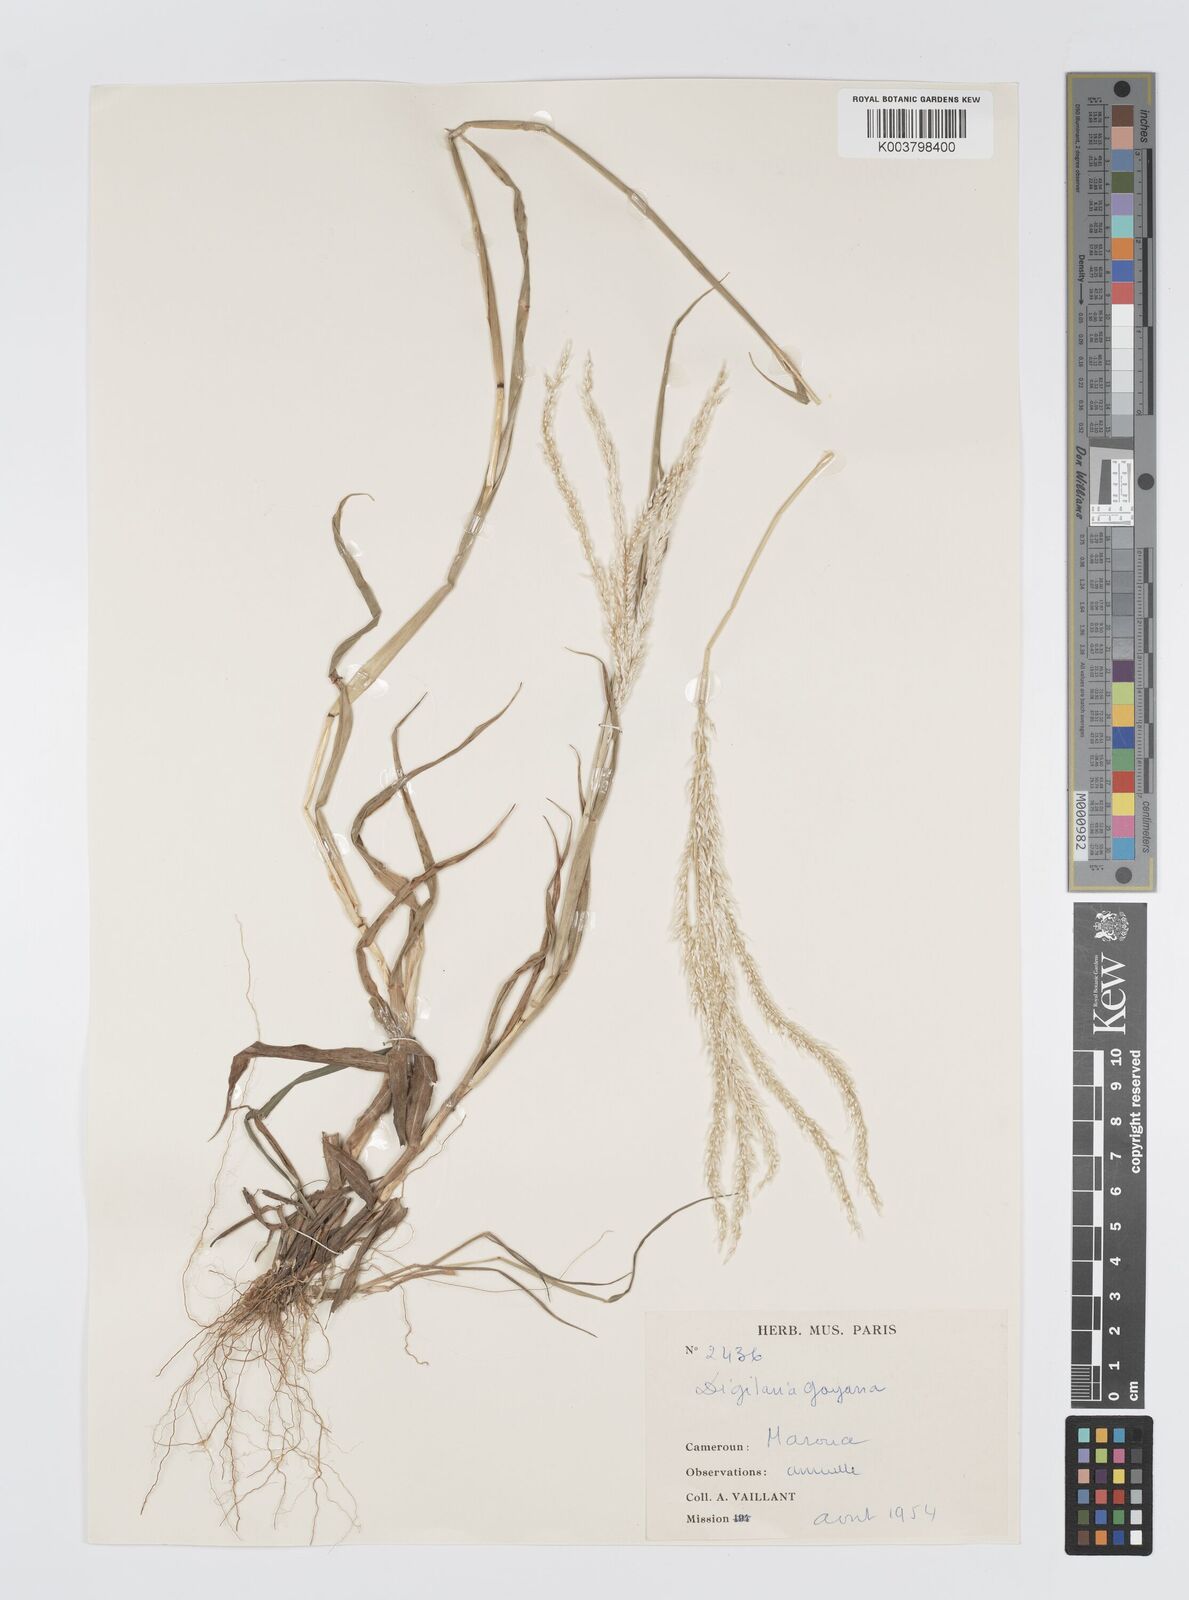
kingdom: Plantae
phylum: Tracheophyta
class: Liliopsida
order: Poales
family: Poaceae
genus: Digitaria
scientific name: Digitaria gayana
